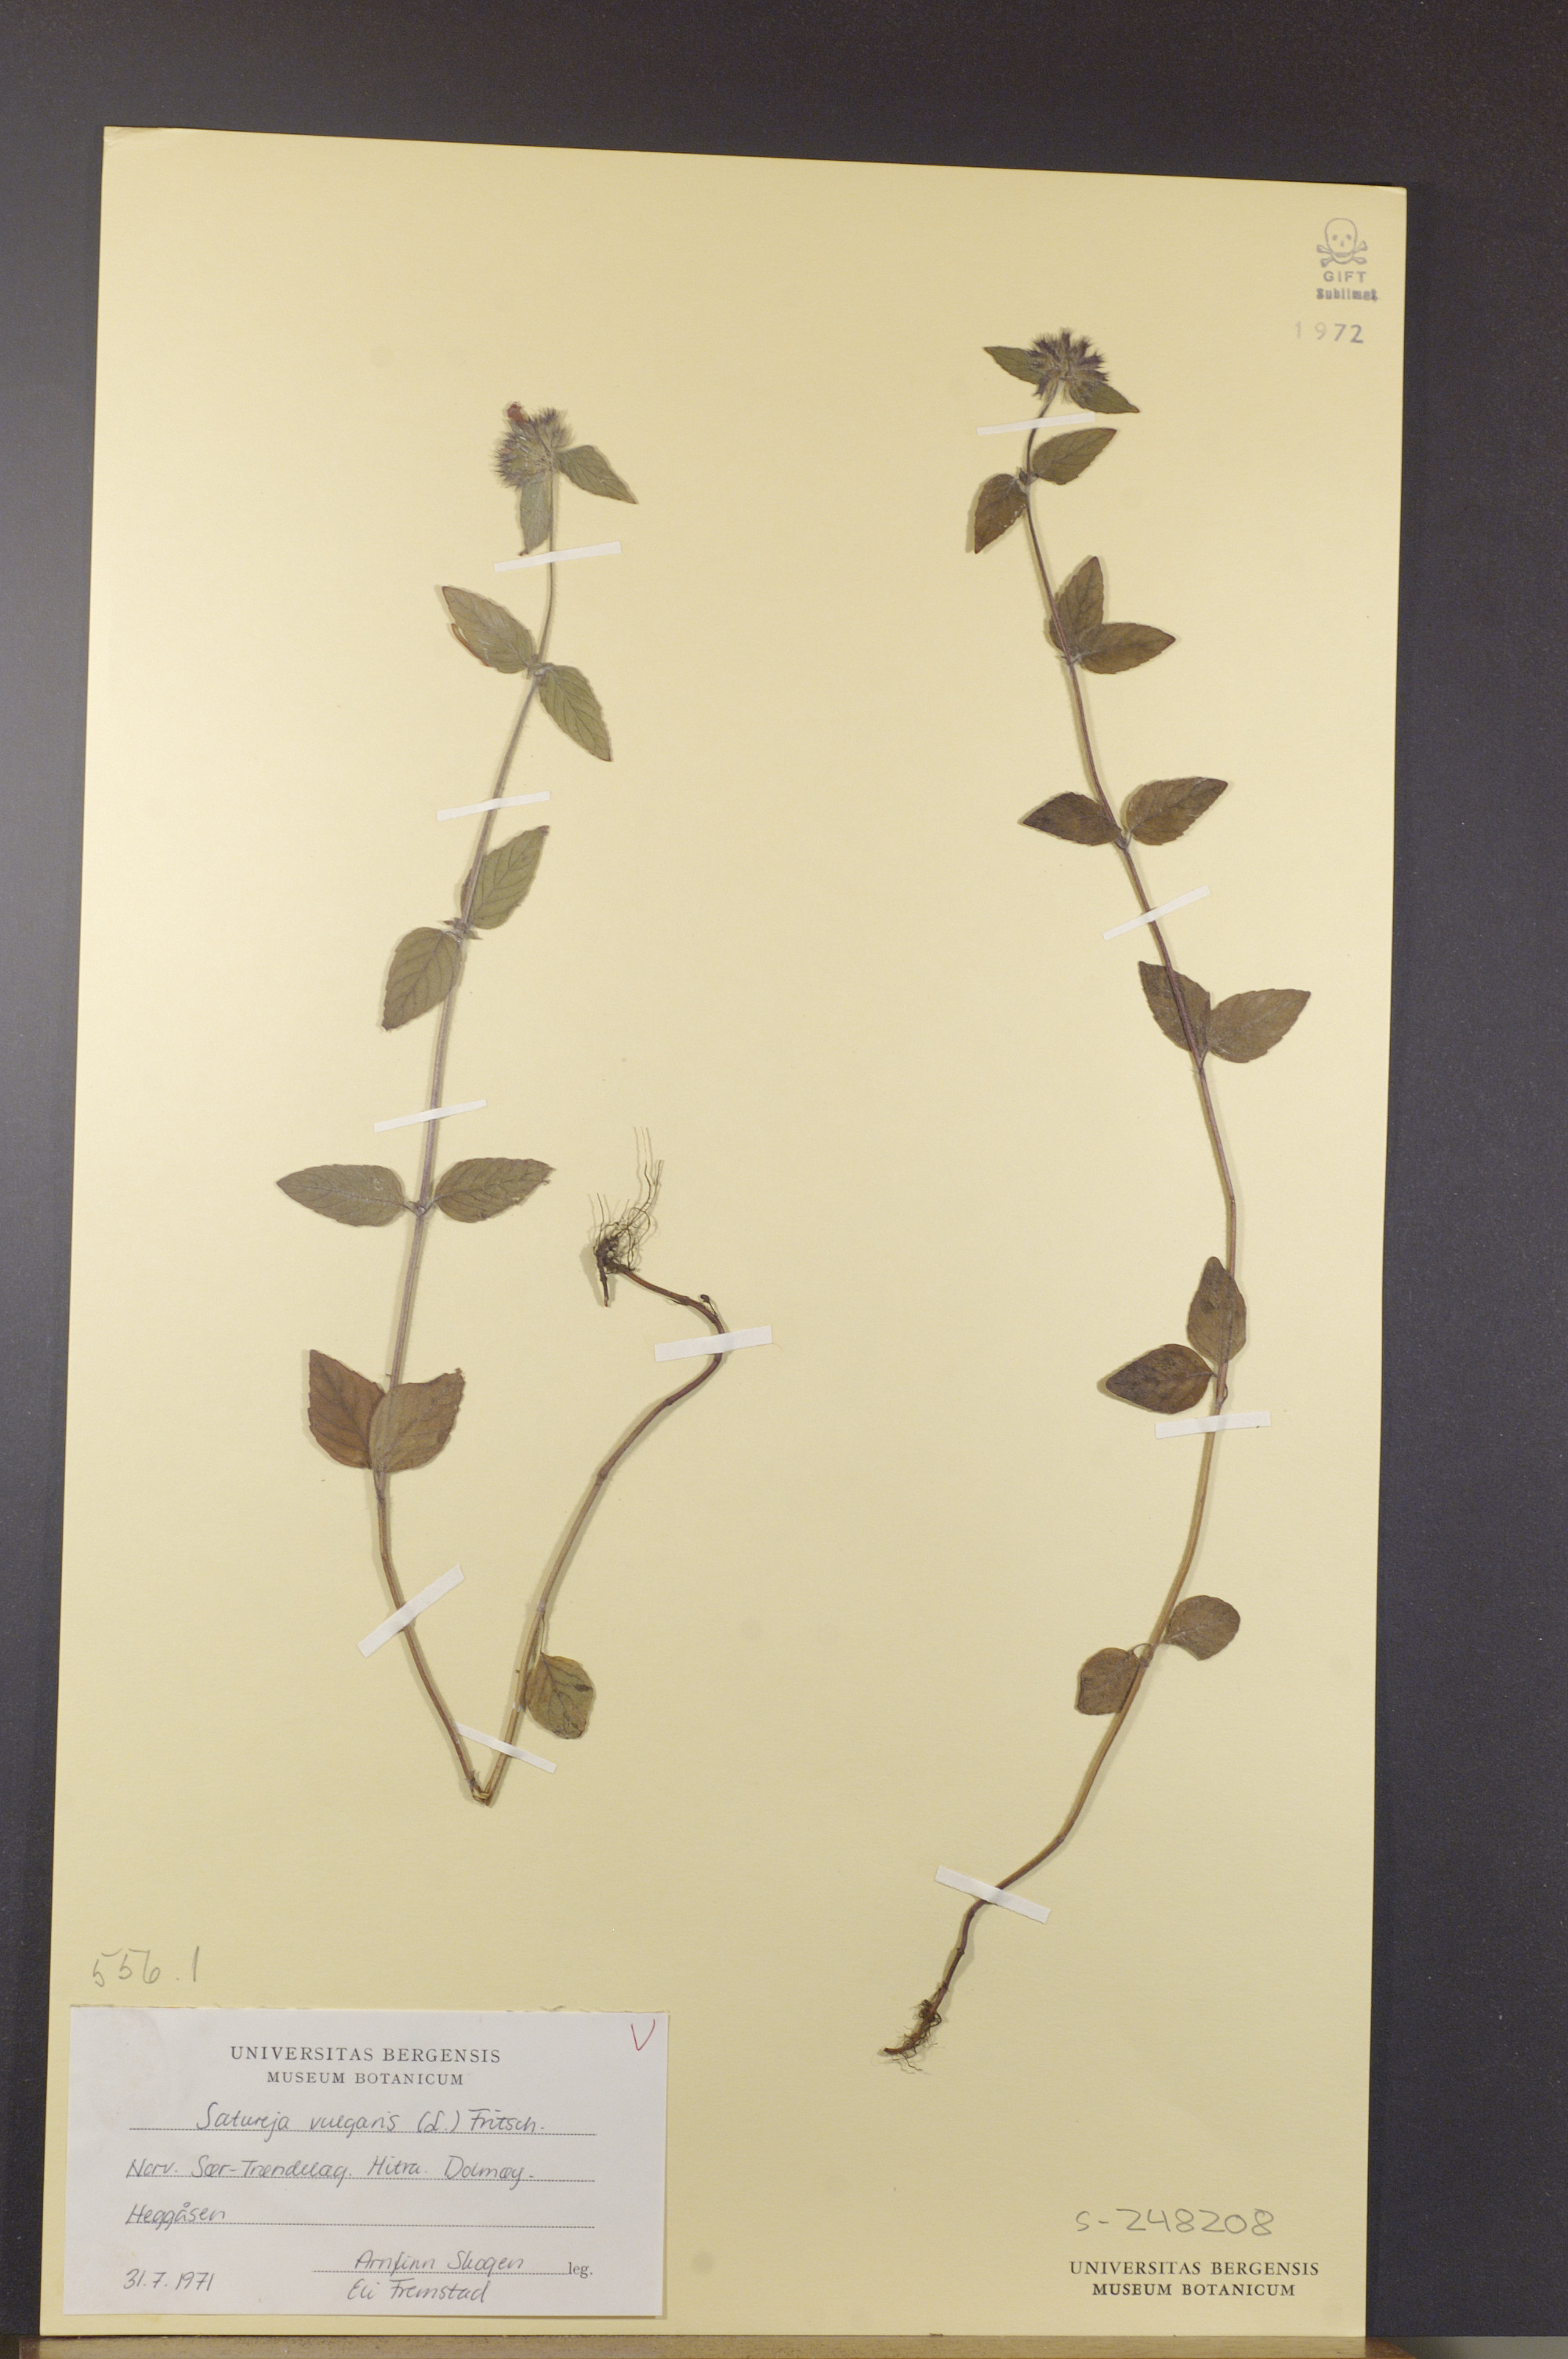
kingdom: Plantae
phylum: Tracheophyta
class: Magnoliopsida
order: Lamiales
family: Lamiaceae
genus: Clinopodium
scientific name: Clinopodium vulgare
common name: Wild basil
